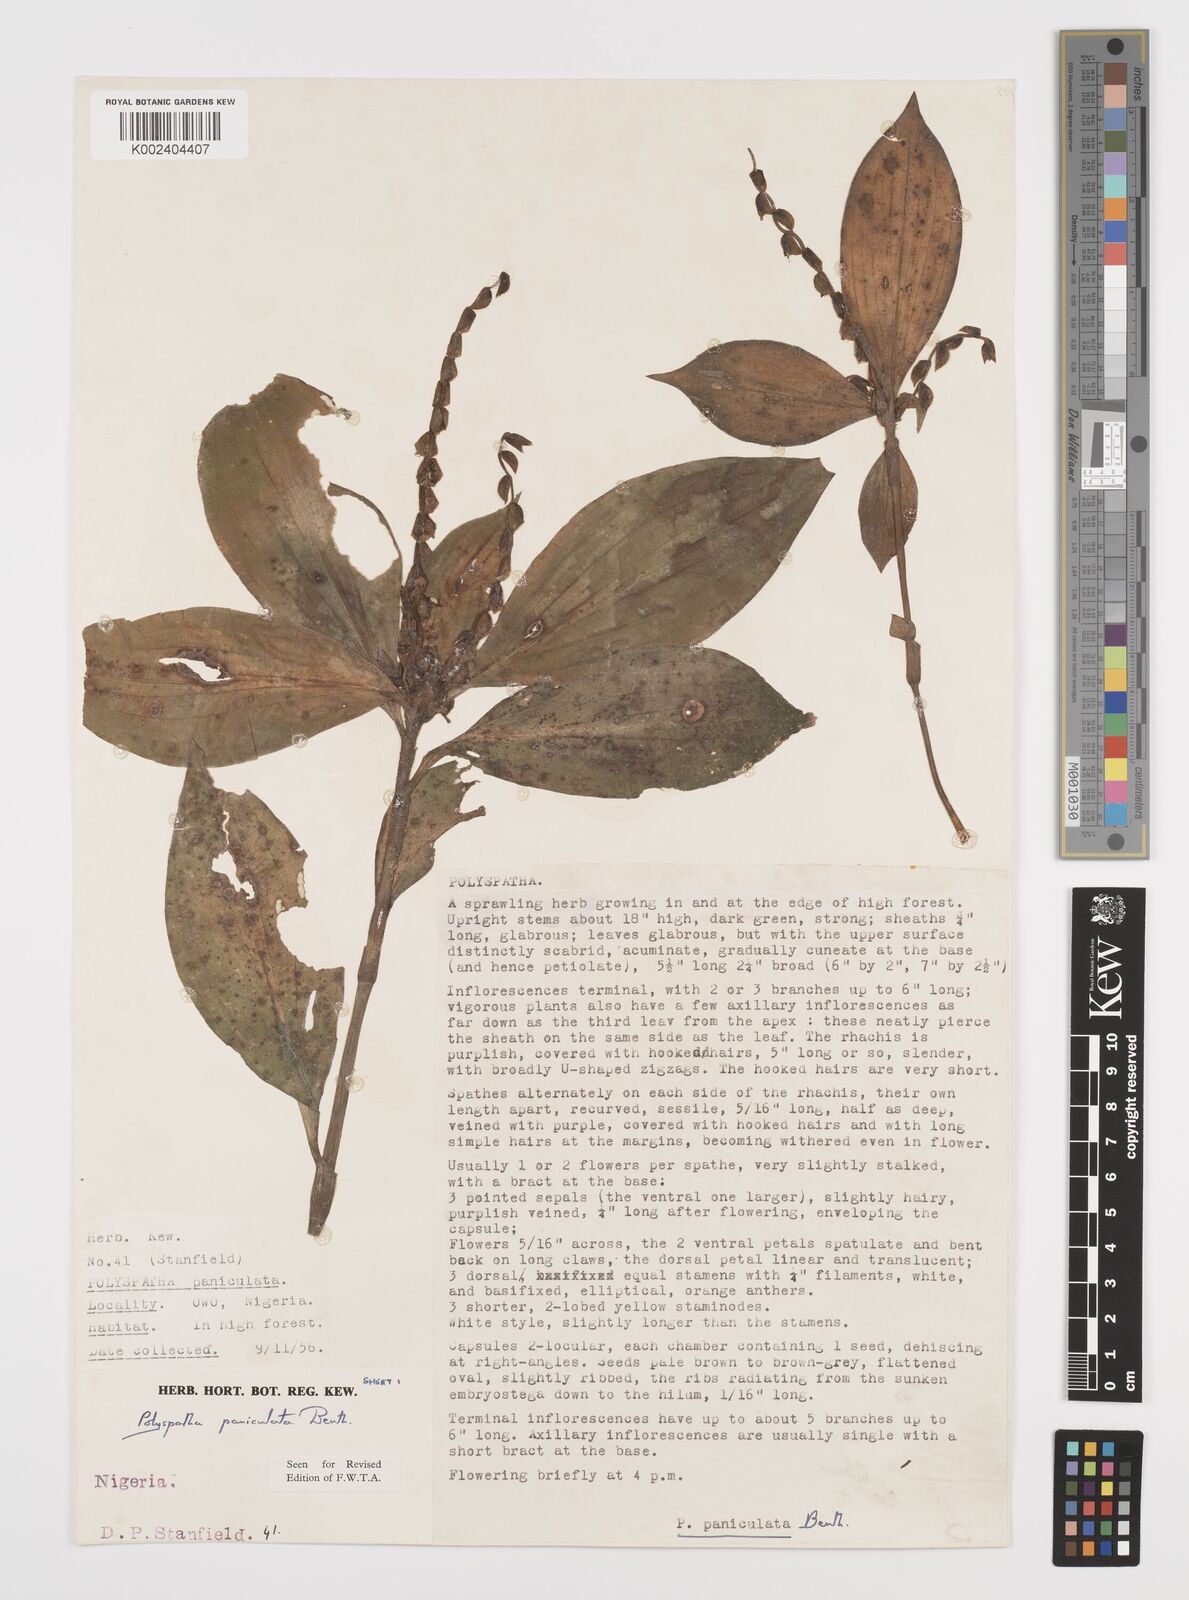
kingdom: Plantae
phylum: Tracheophyta
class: Liliopsida
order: Commelinales
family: Commelinaceae
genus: Polyspatha
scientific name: Polyspatha paniculata
